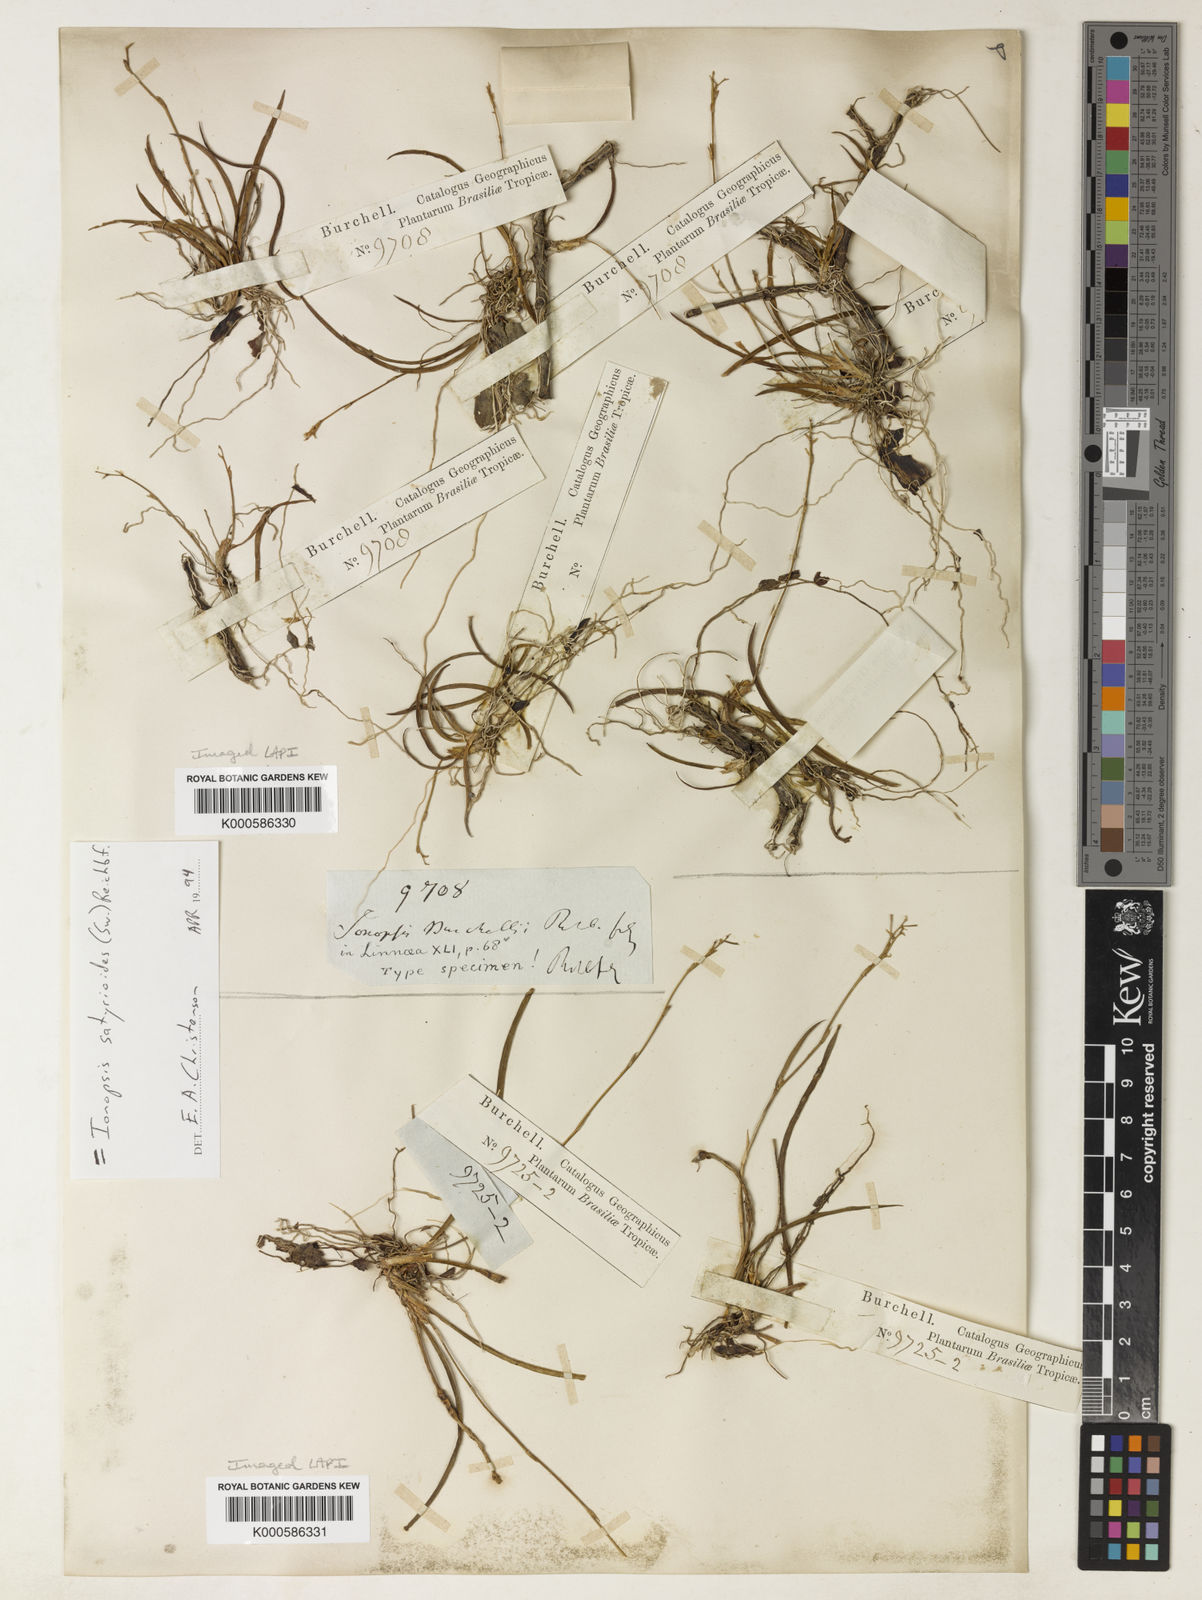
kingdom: Plantae
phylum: Tracheophyta
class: Liliopsida
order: Asparagales
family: Orchidaceae
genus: Ionopsis
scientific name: Ionopsis burchellii
